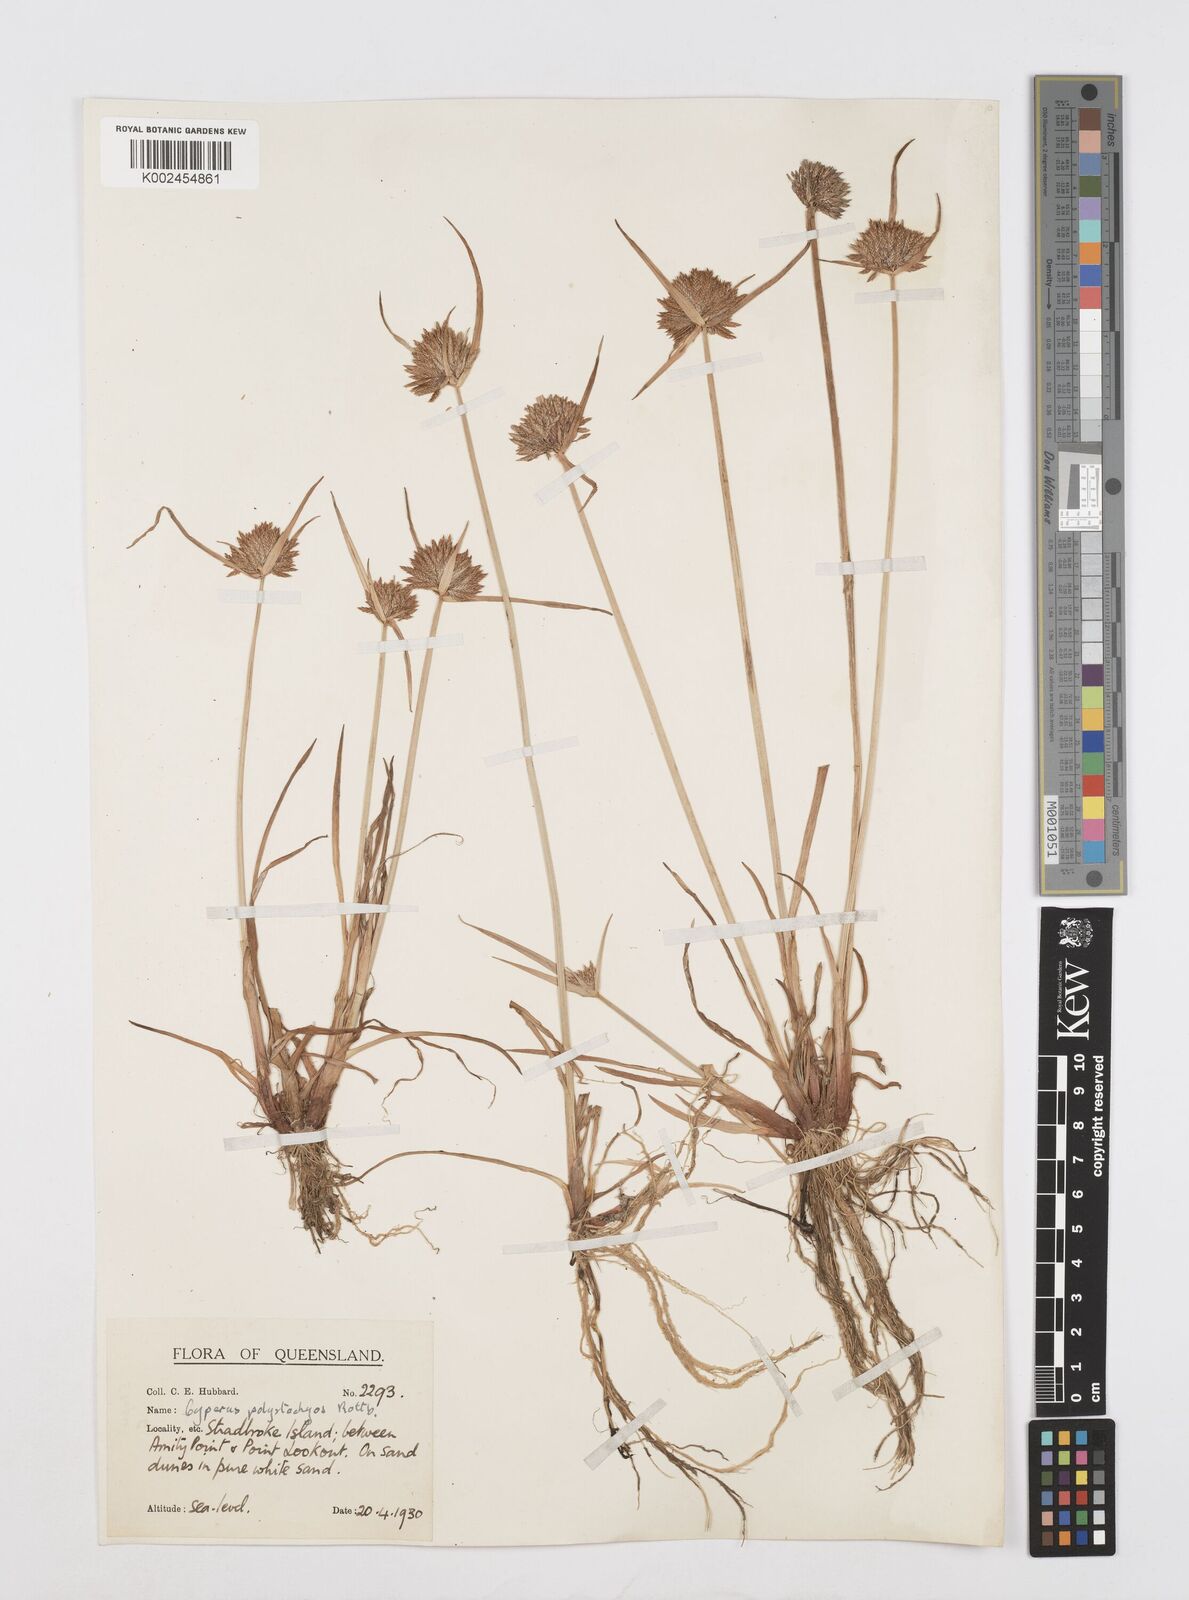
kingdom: Plantae
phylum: Tracheophyta
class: Liliopsida
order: Poales
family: Cyperaceae
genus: Cyperus
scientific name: Cyperus polystachyos
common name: Bunchy flat sedge
